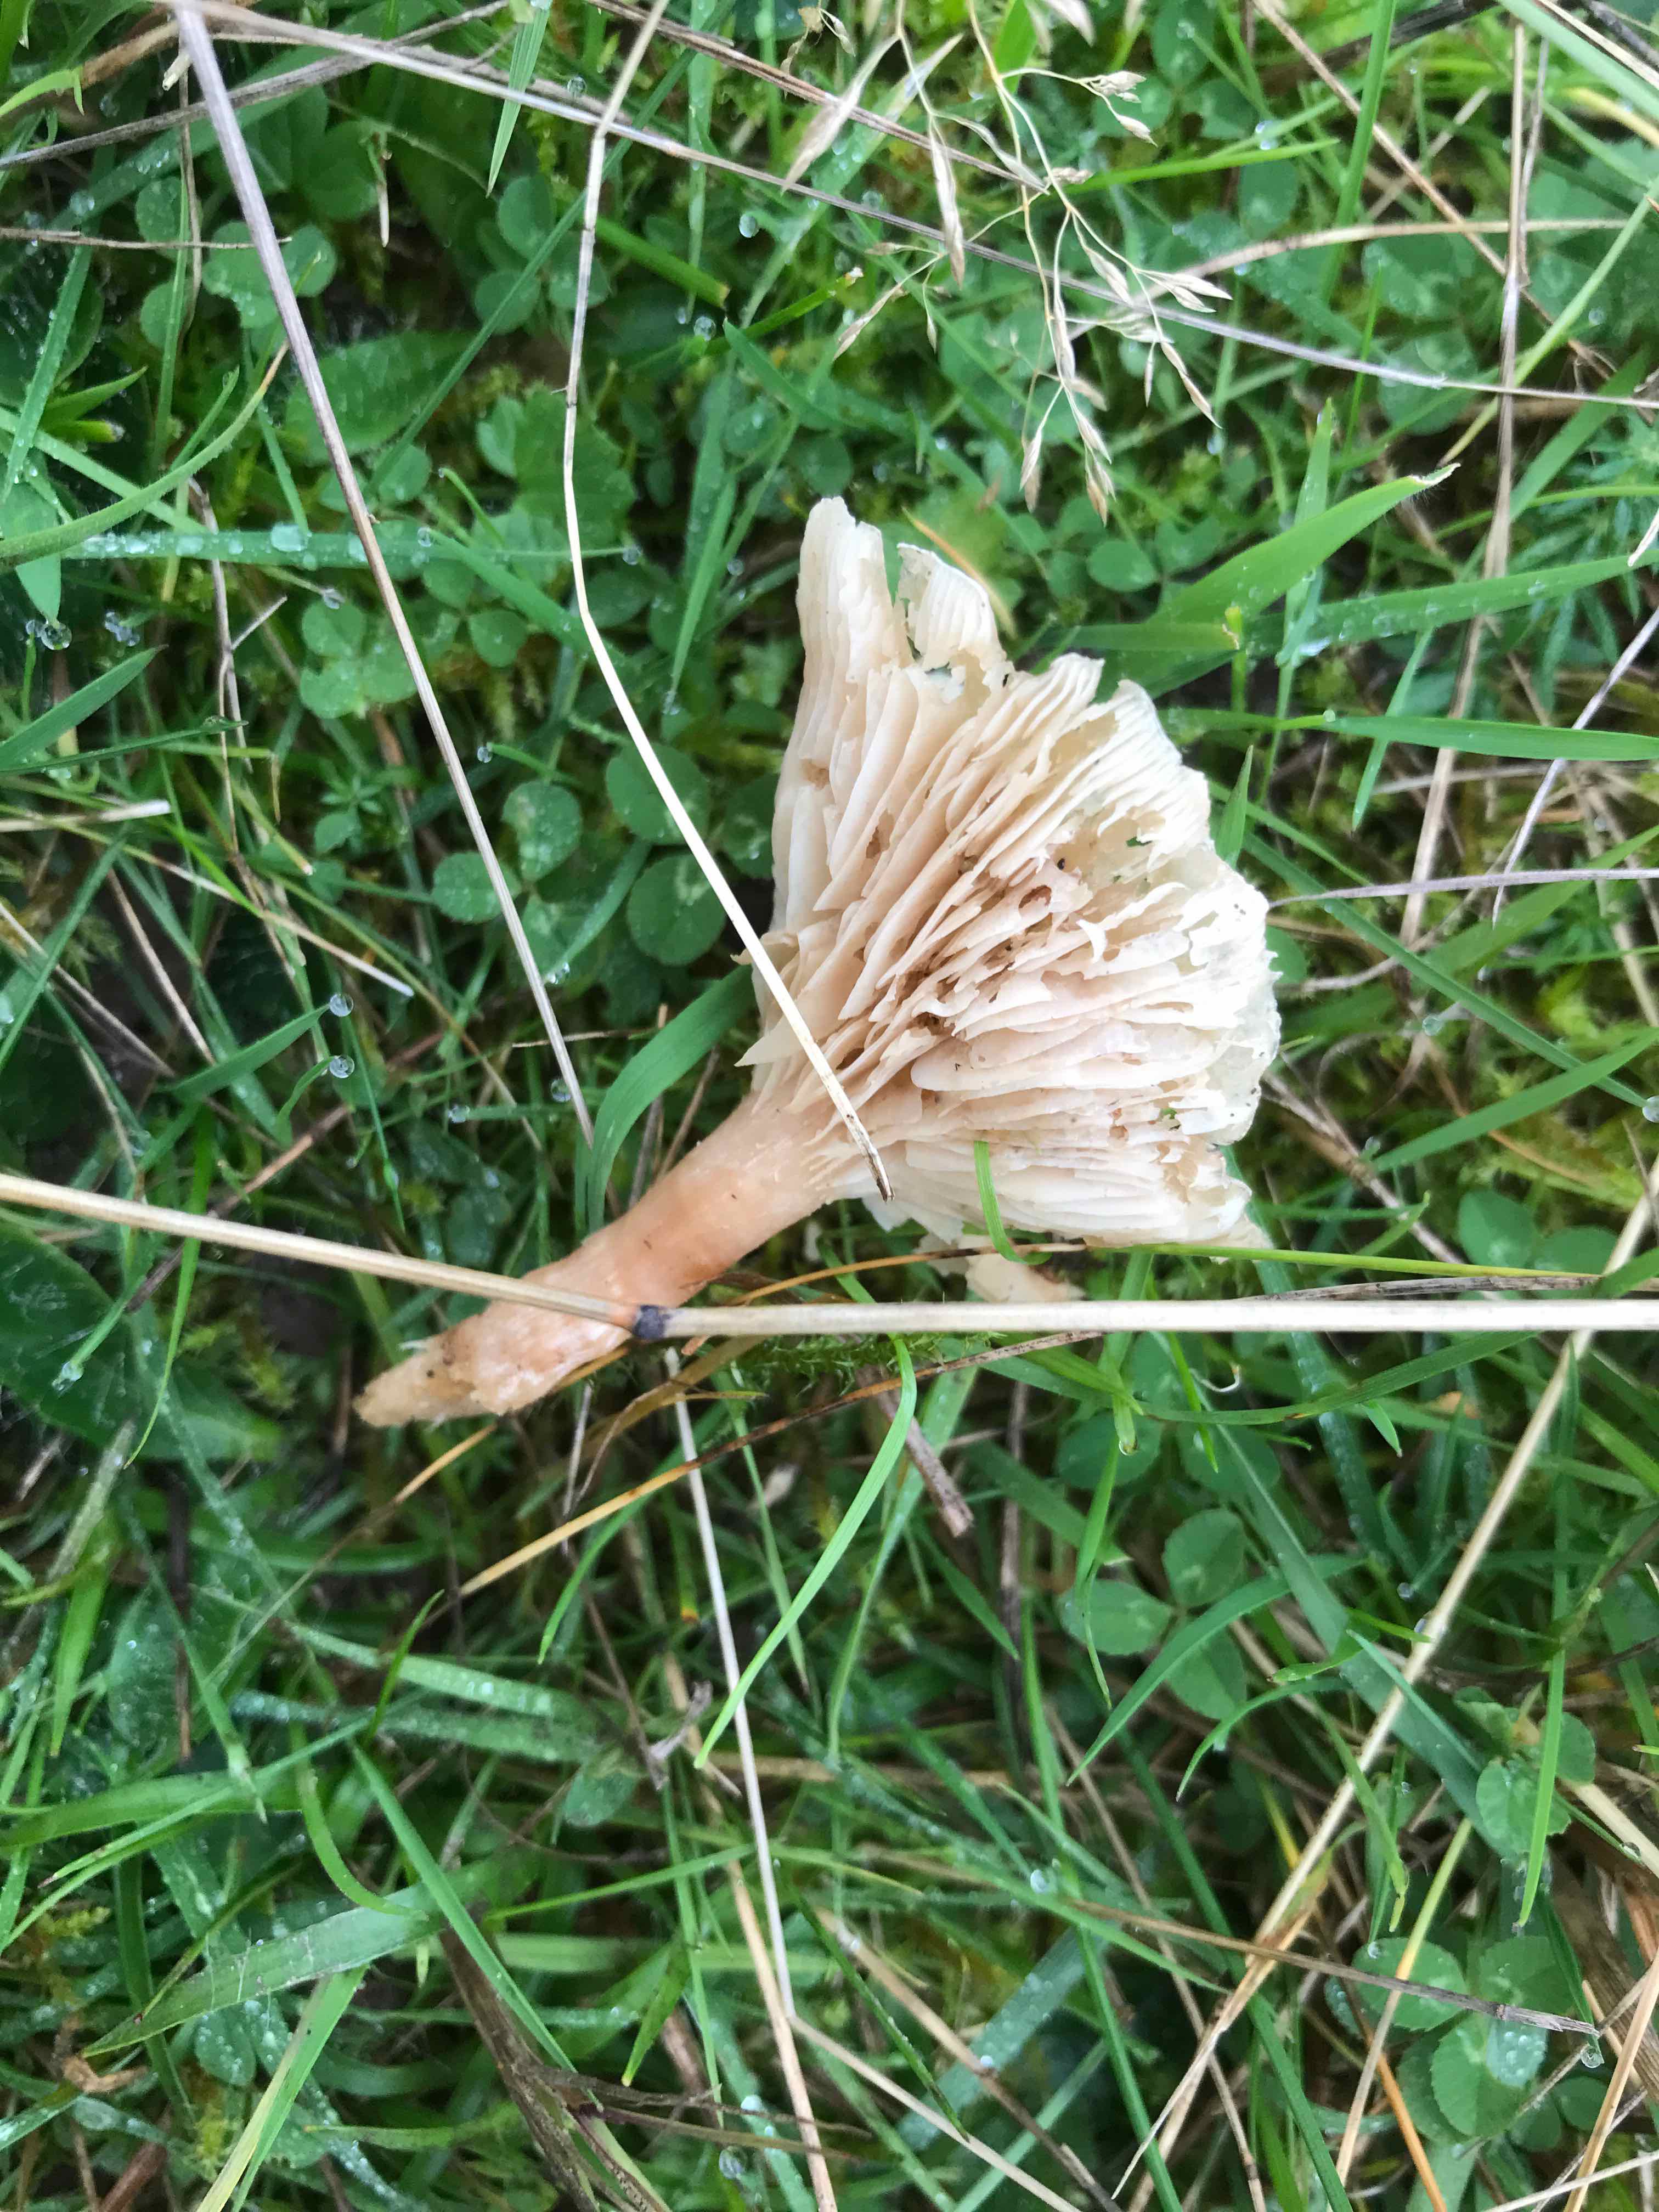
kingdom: Fungi
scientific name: Fungi
